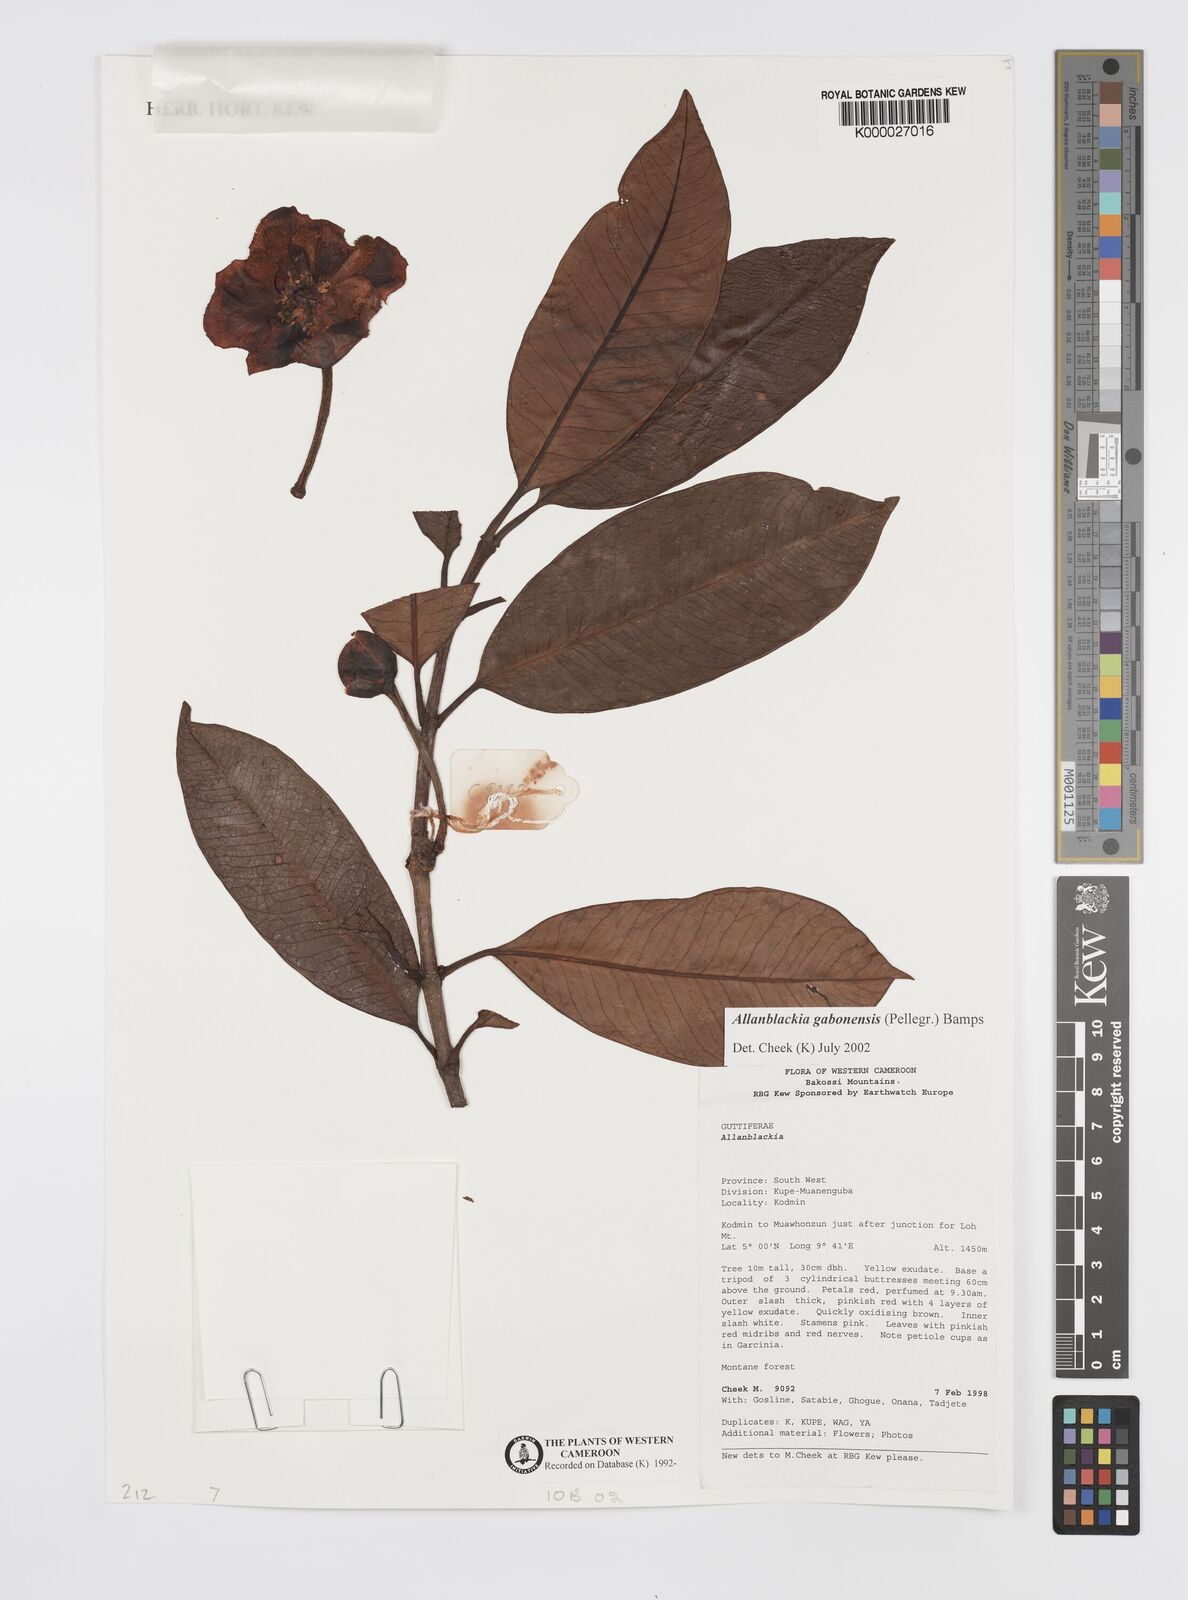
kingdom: Plantae
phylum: Tracheophyta
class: Magnoliopsida
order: Malpighiales
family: Clusiaceae
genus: Allanblackia
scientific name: Allanblackia gabonensis
